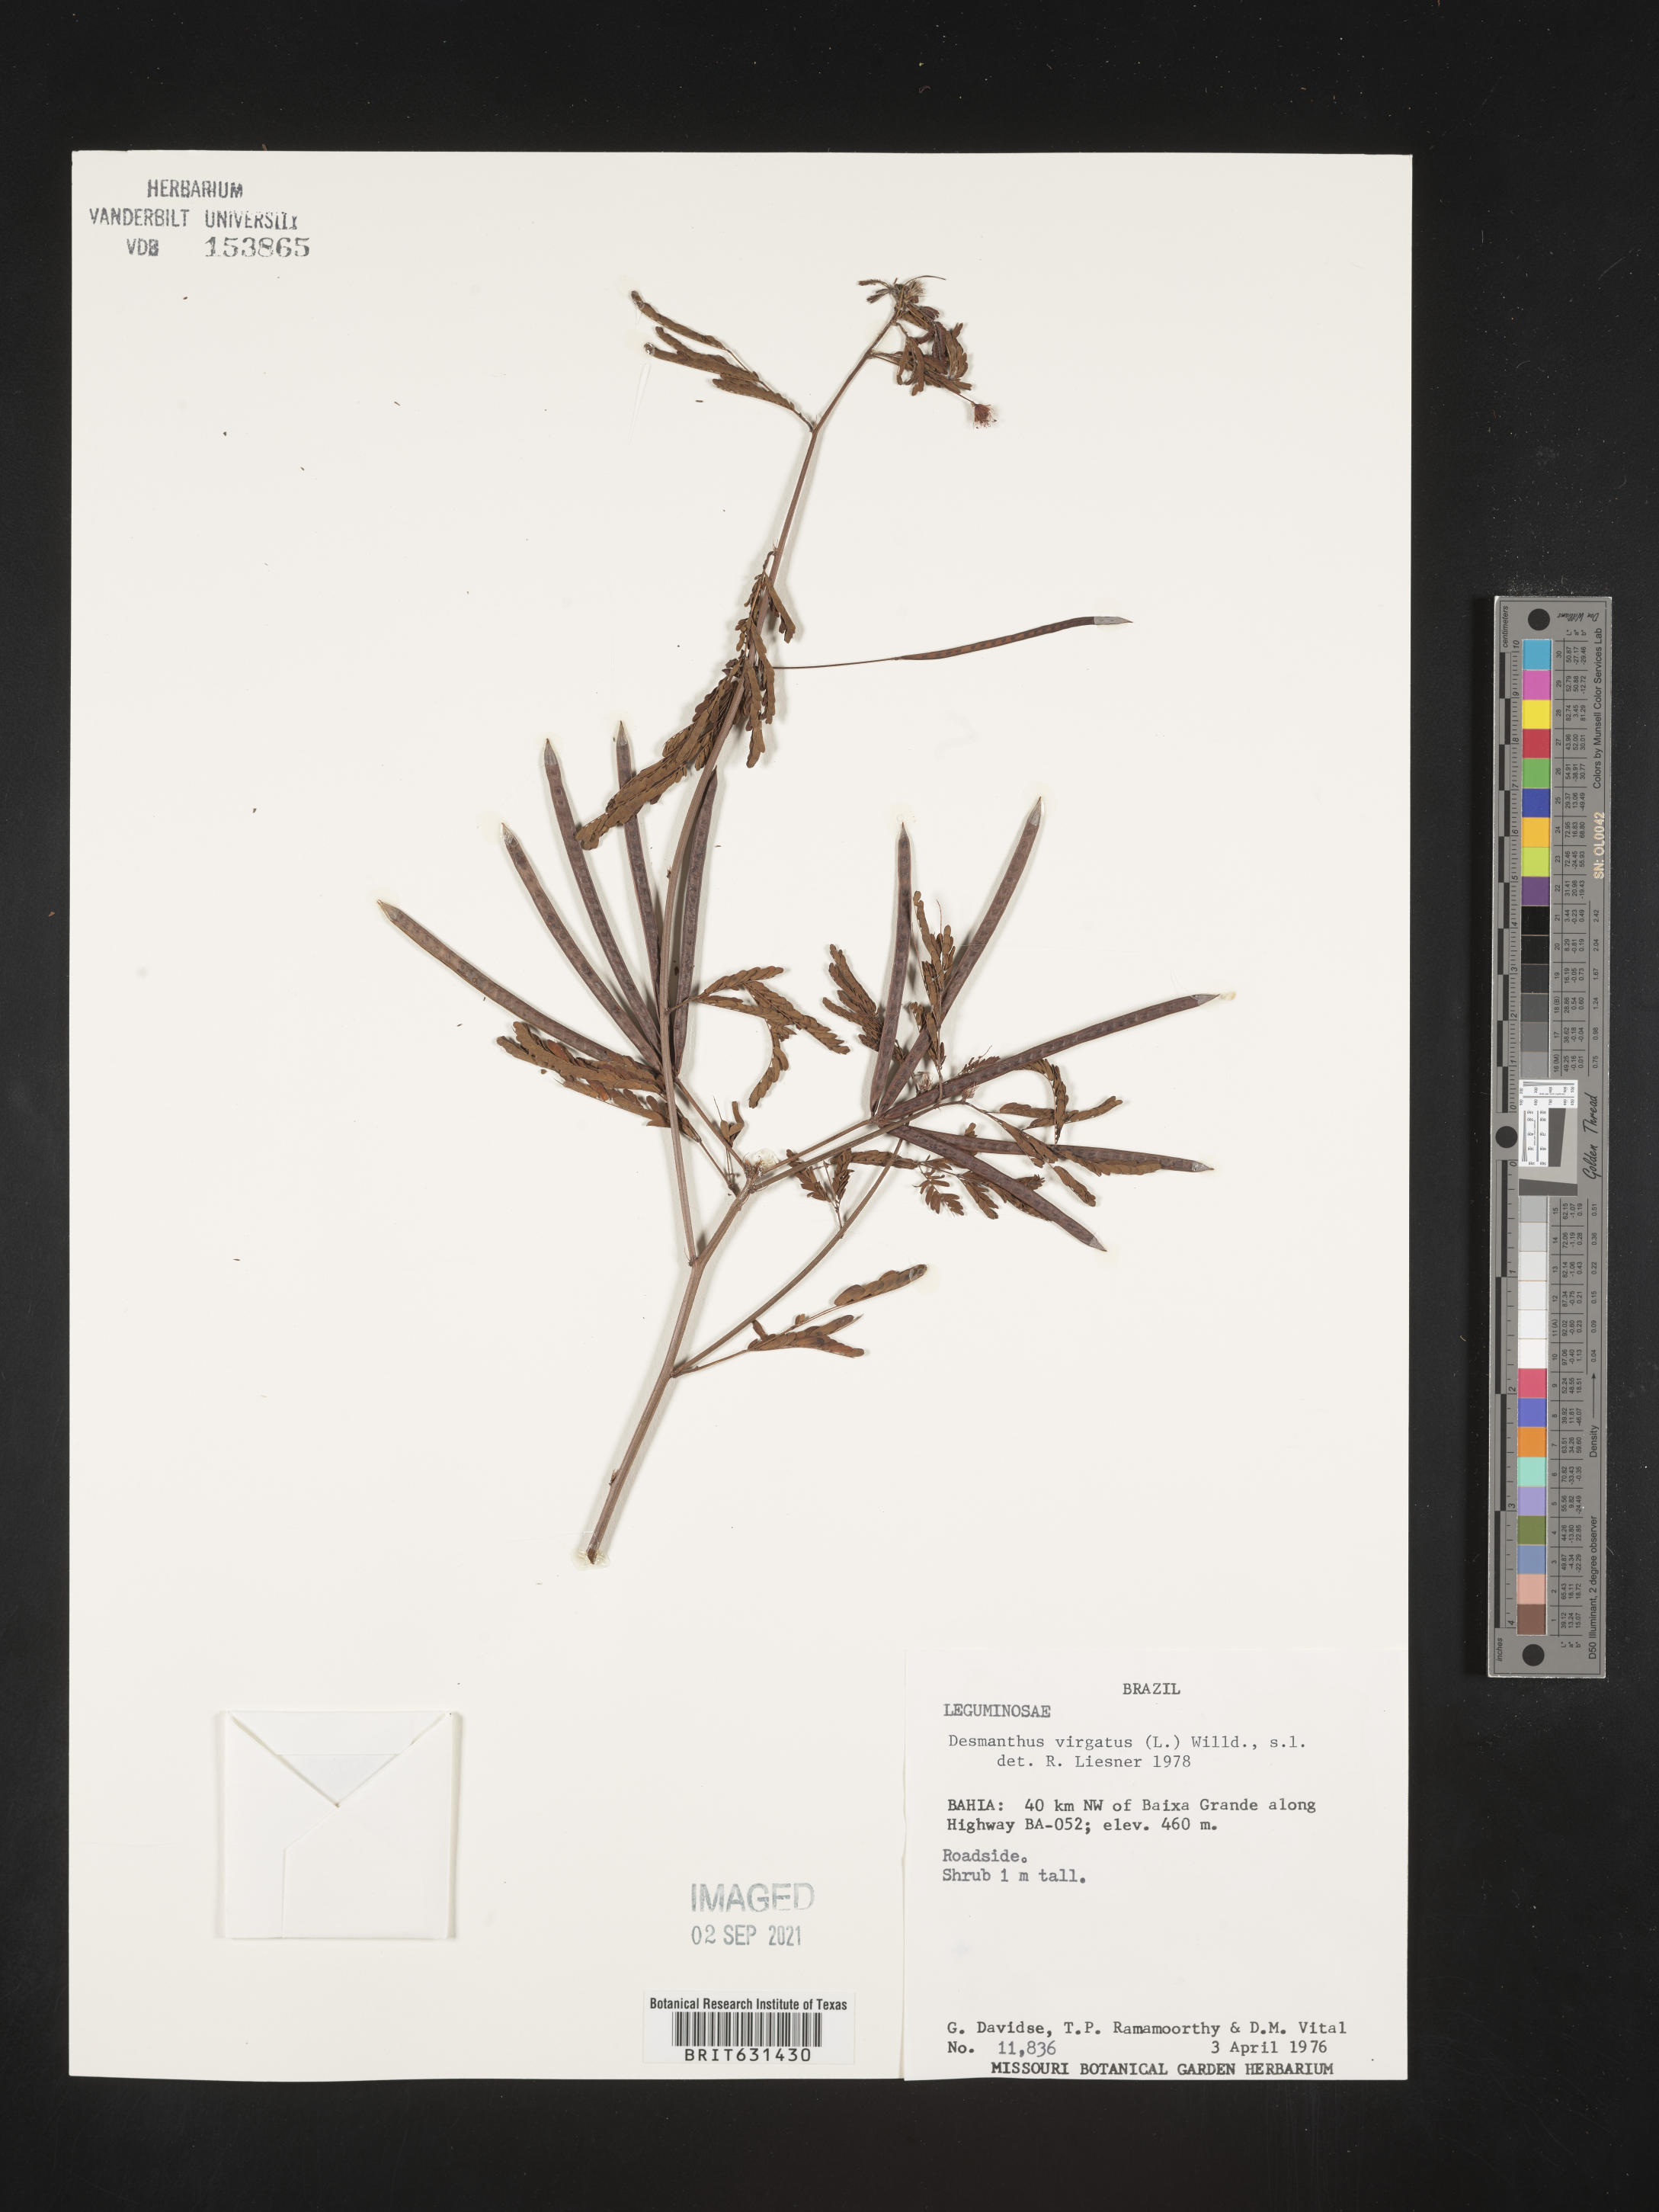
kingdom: Plantae
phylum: Tracheophyta
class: Magnoliopsida
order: Fabales
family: Fabaceae
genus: Desmanthus
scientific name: Desmanthus virgatus
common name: Wild tantan
